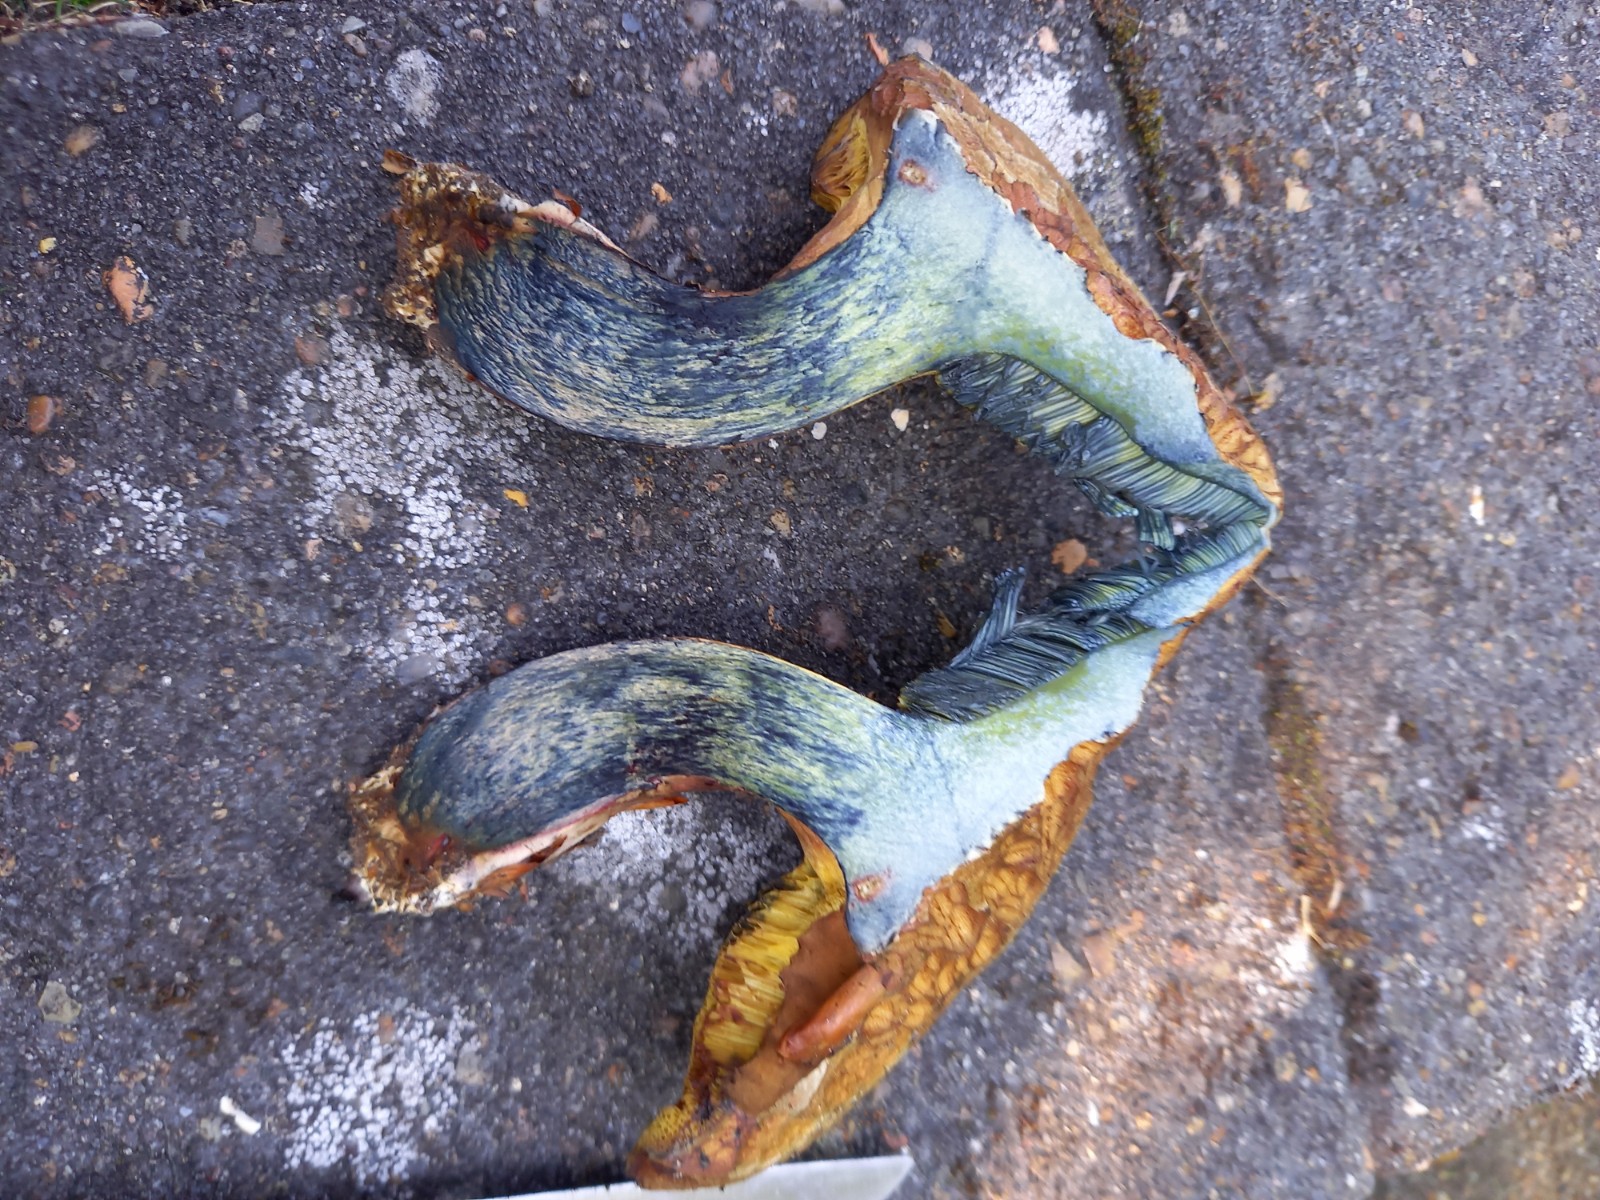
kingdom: Fungi
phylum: Basidiomycota
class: Agaricomycetes
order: Boletales
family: Boletaceae
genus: Cyanoboletus
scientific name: Cyanoboletus pulverulentus
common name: sortblånende rørhat
